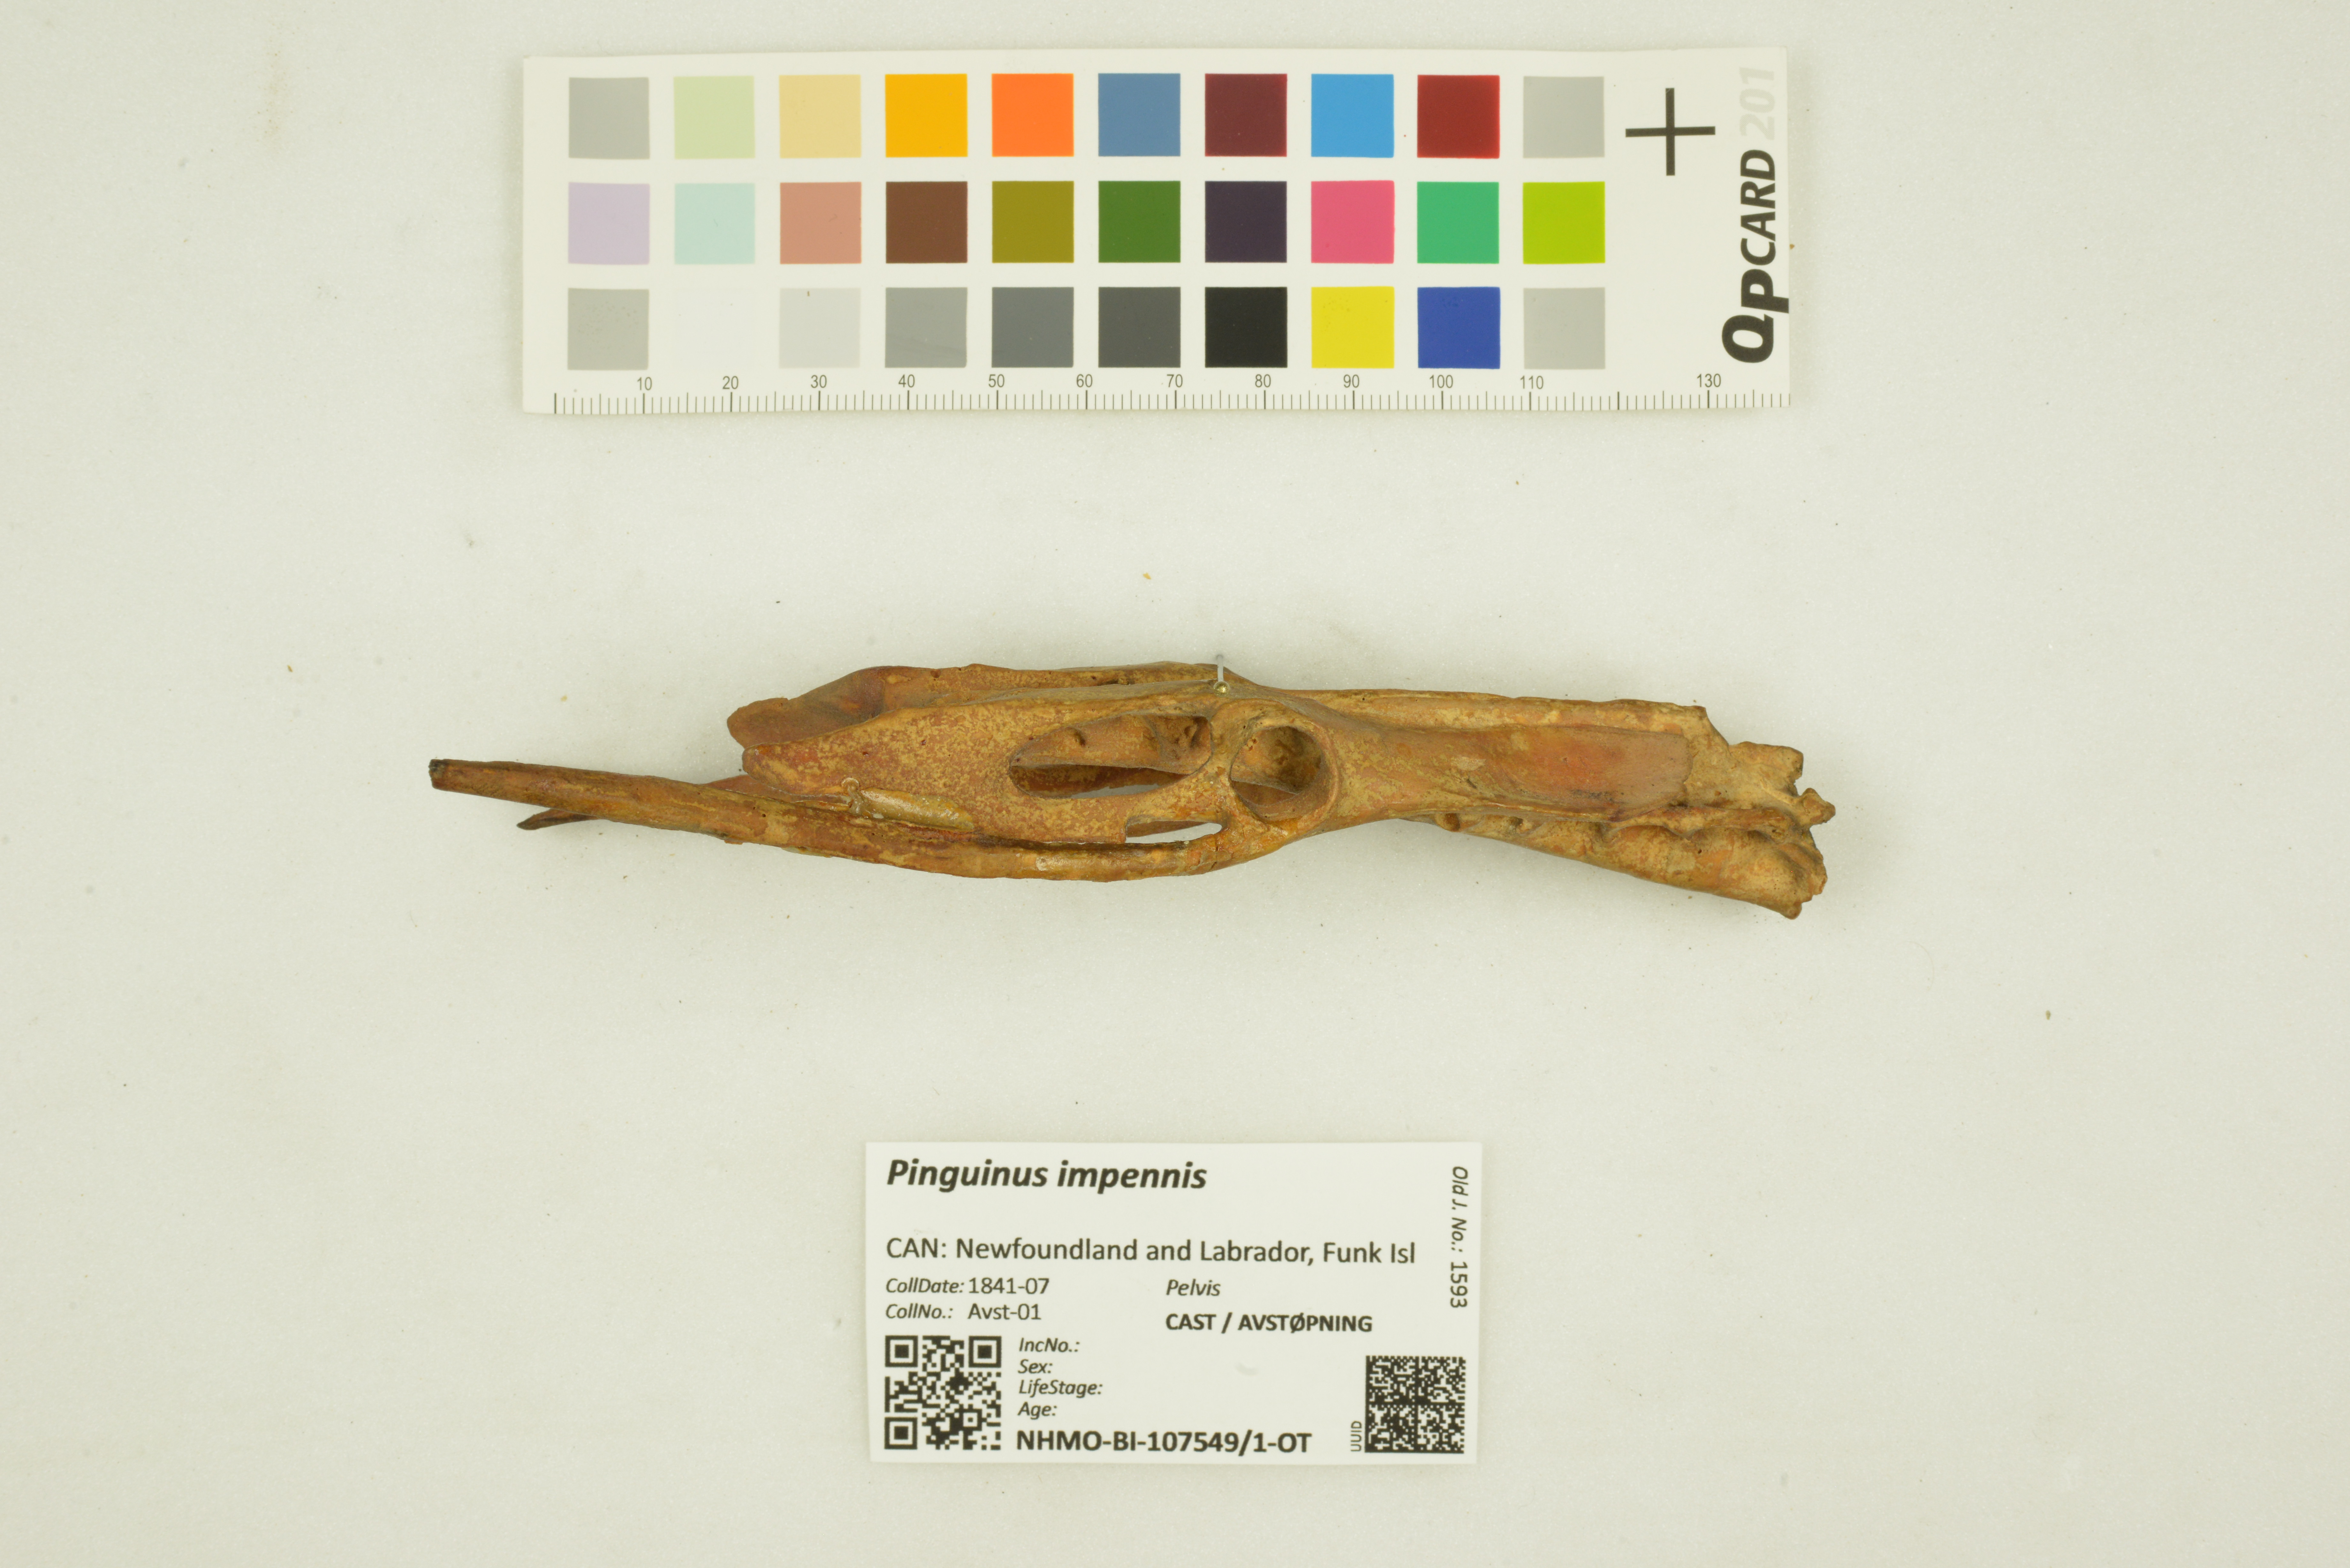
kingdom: Animalia
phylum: Chordata
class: Aves
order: Charadriiformes
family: Alcidae
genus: Pinguinus
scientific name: Pinguinus impennis
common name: Great auk
